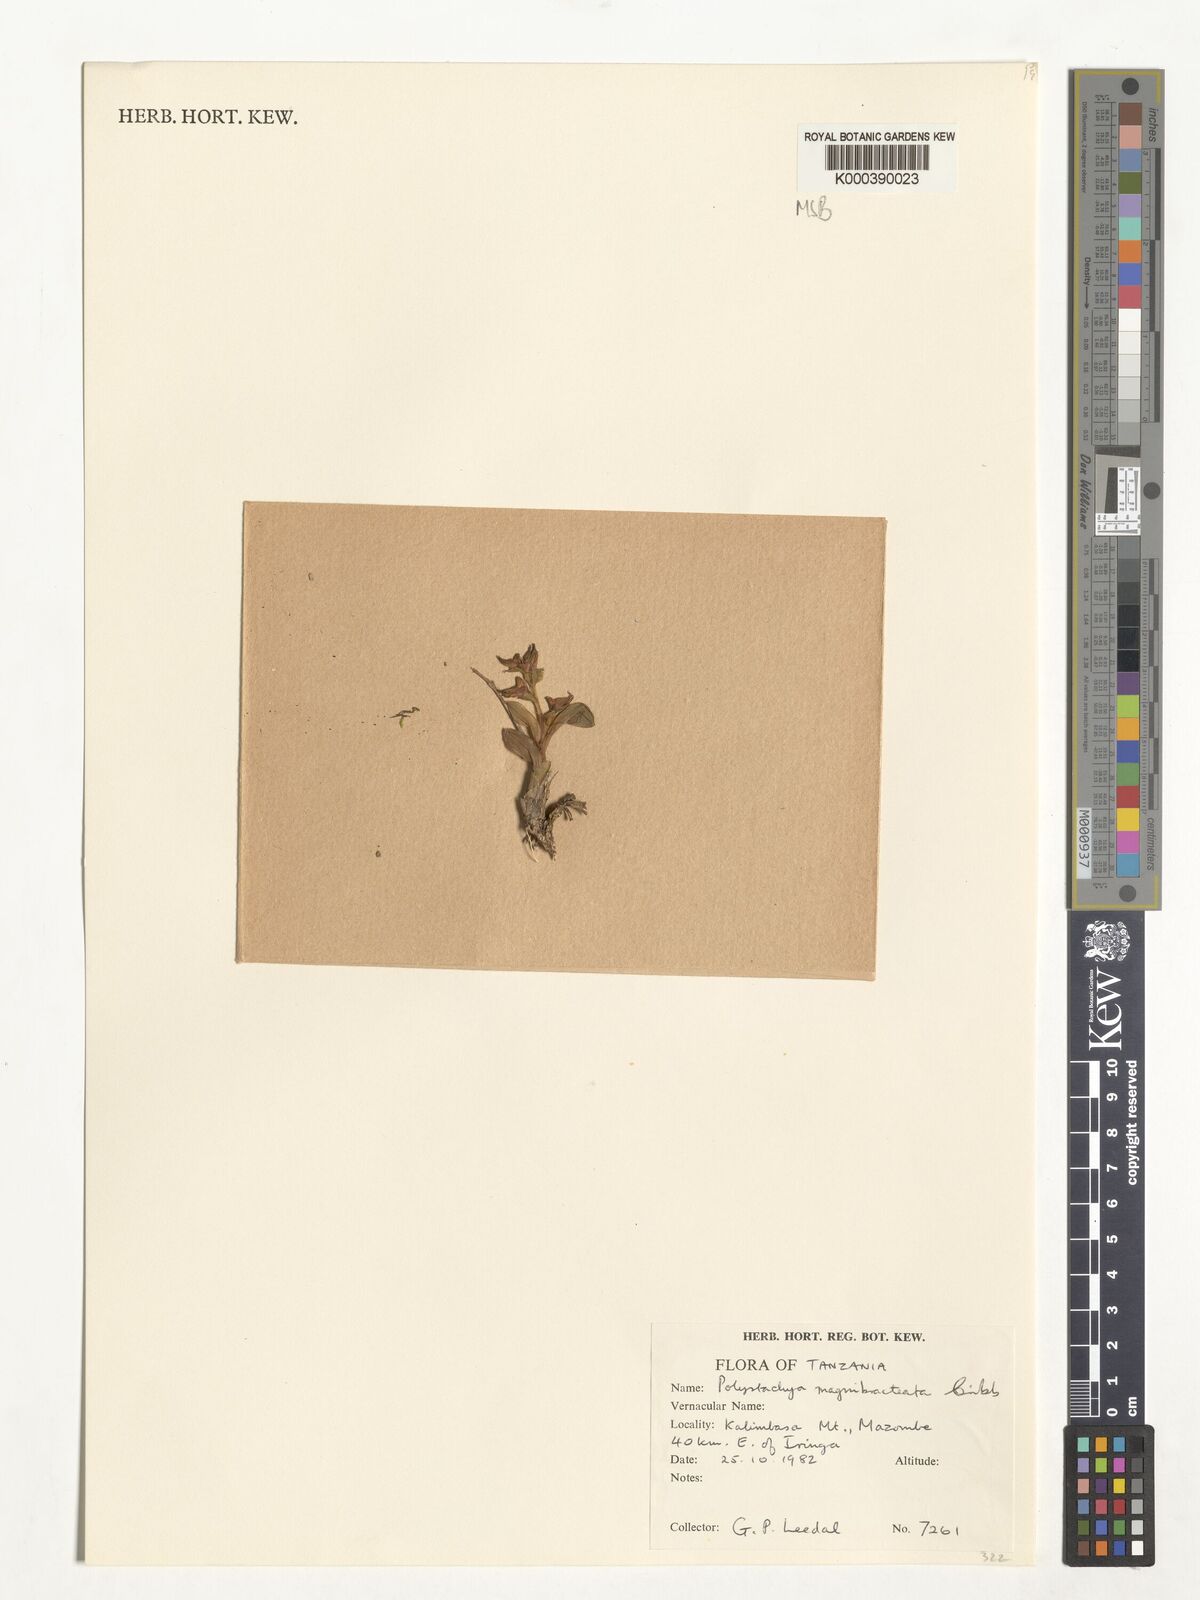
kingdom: Plantae
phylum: Tracheophyta
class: Liliopsida
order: Asparagales
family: Orchidaceae
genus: Polystachya
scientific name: Polystachya magnibracteata
